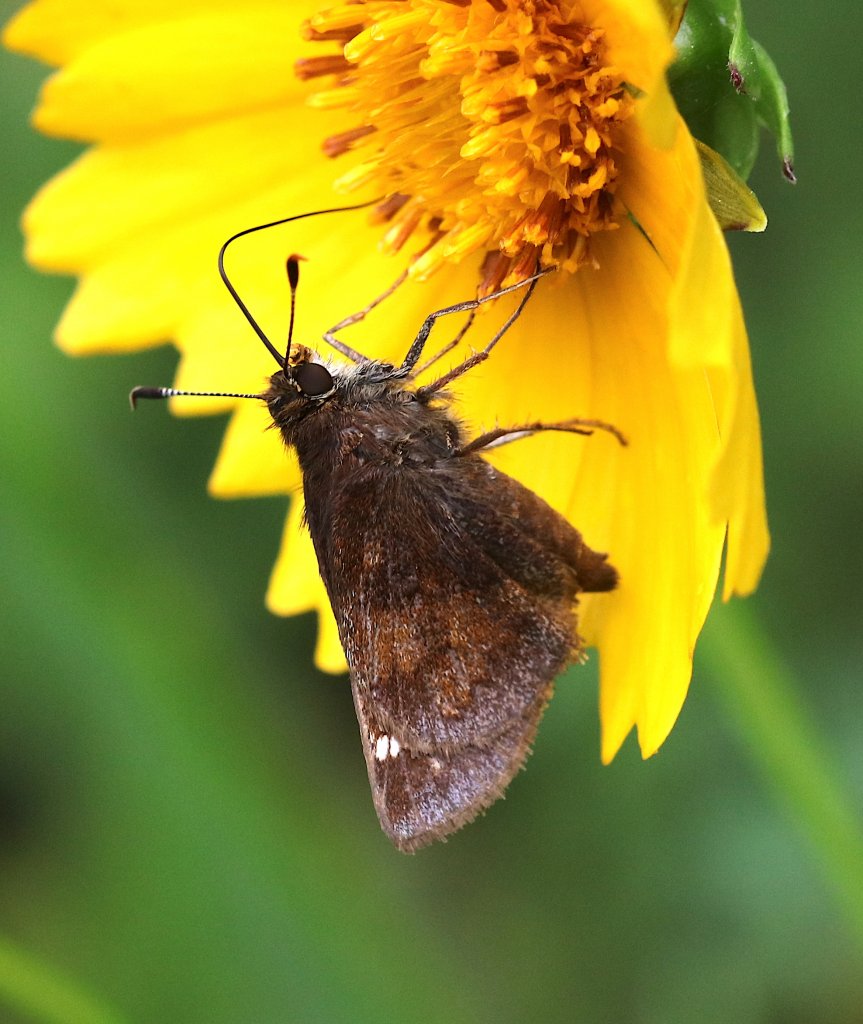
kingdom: Animalia
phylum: Arthropoda
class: Insecta
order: Lepidoptera
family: Hesperiidae
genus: Lon
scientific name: Lon hobomok
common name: Hobomok Skipper
